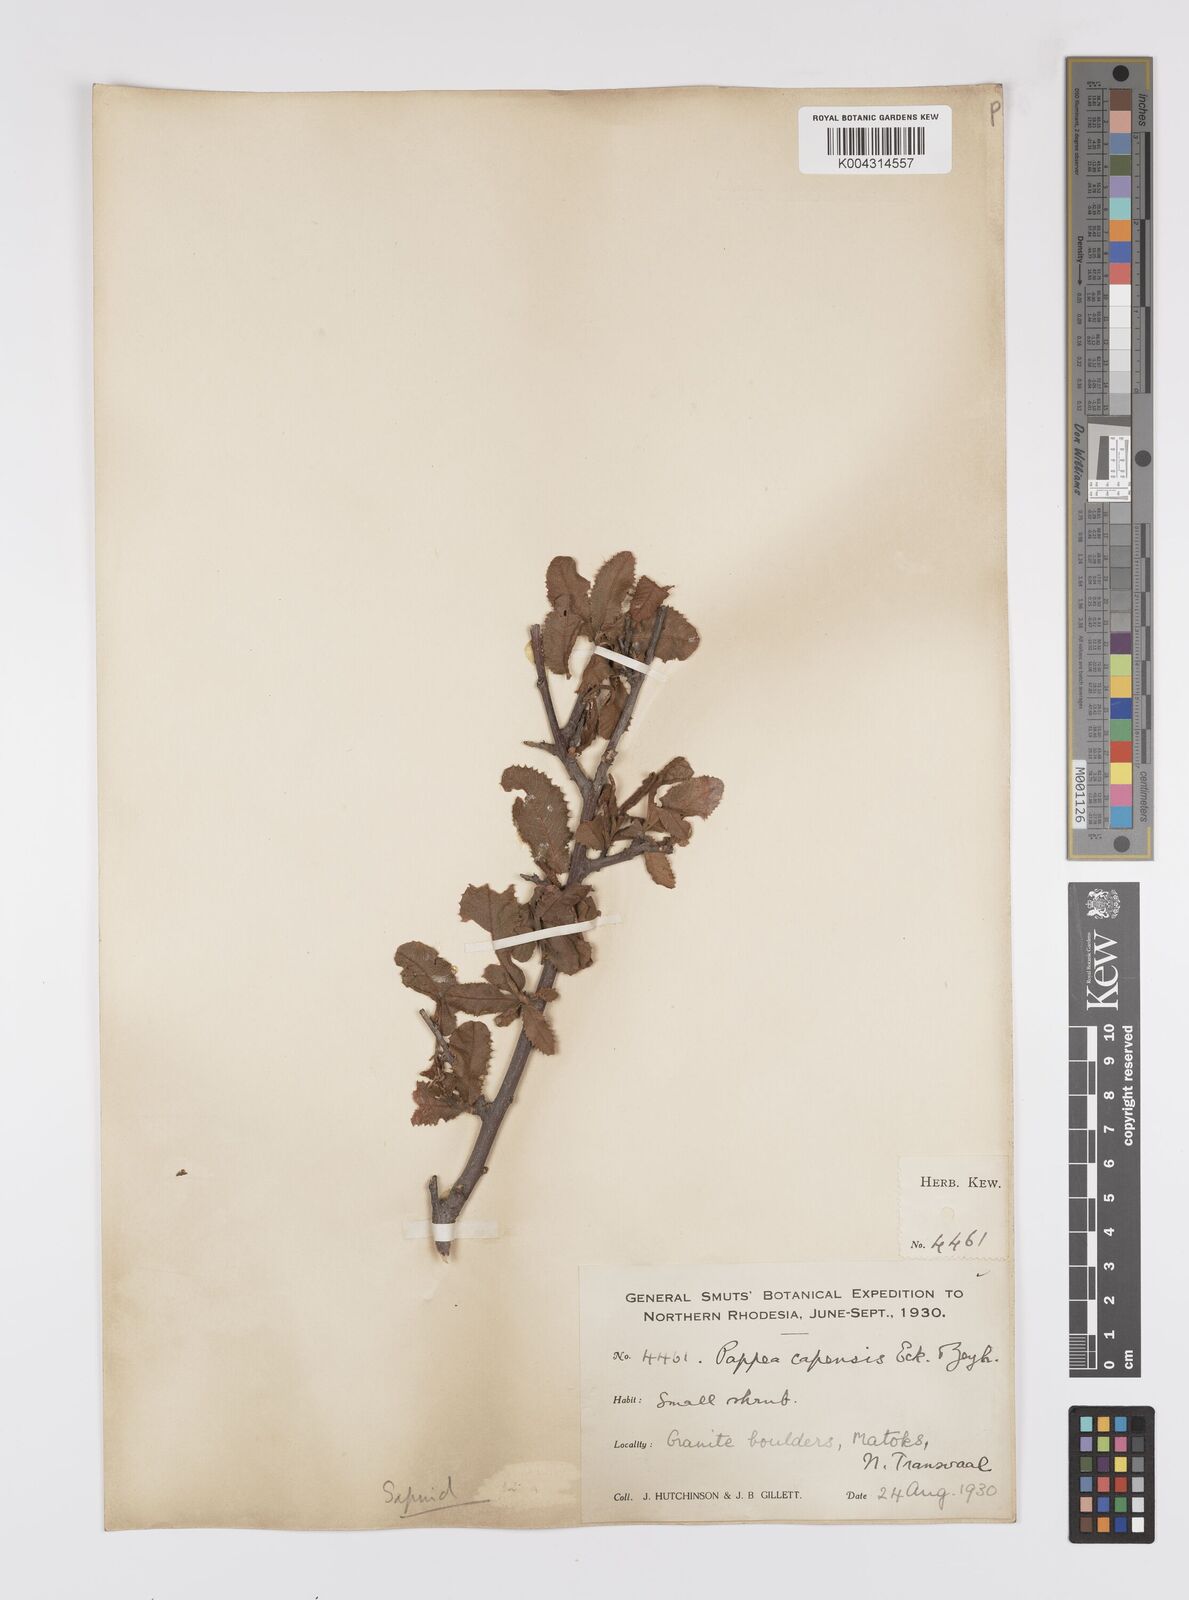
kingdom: Plantae
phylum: Tracheophyta
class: Magnoliopsida
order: Sapindales
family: Sapindaceae
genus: Pappea
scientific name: Pappea capensis
